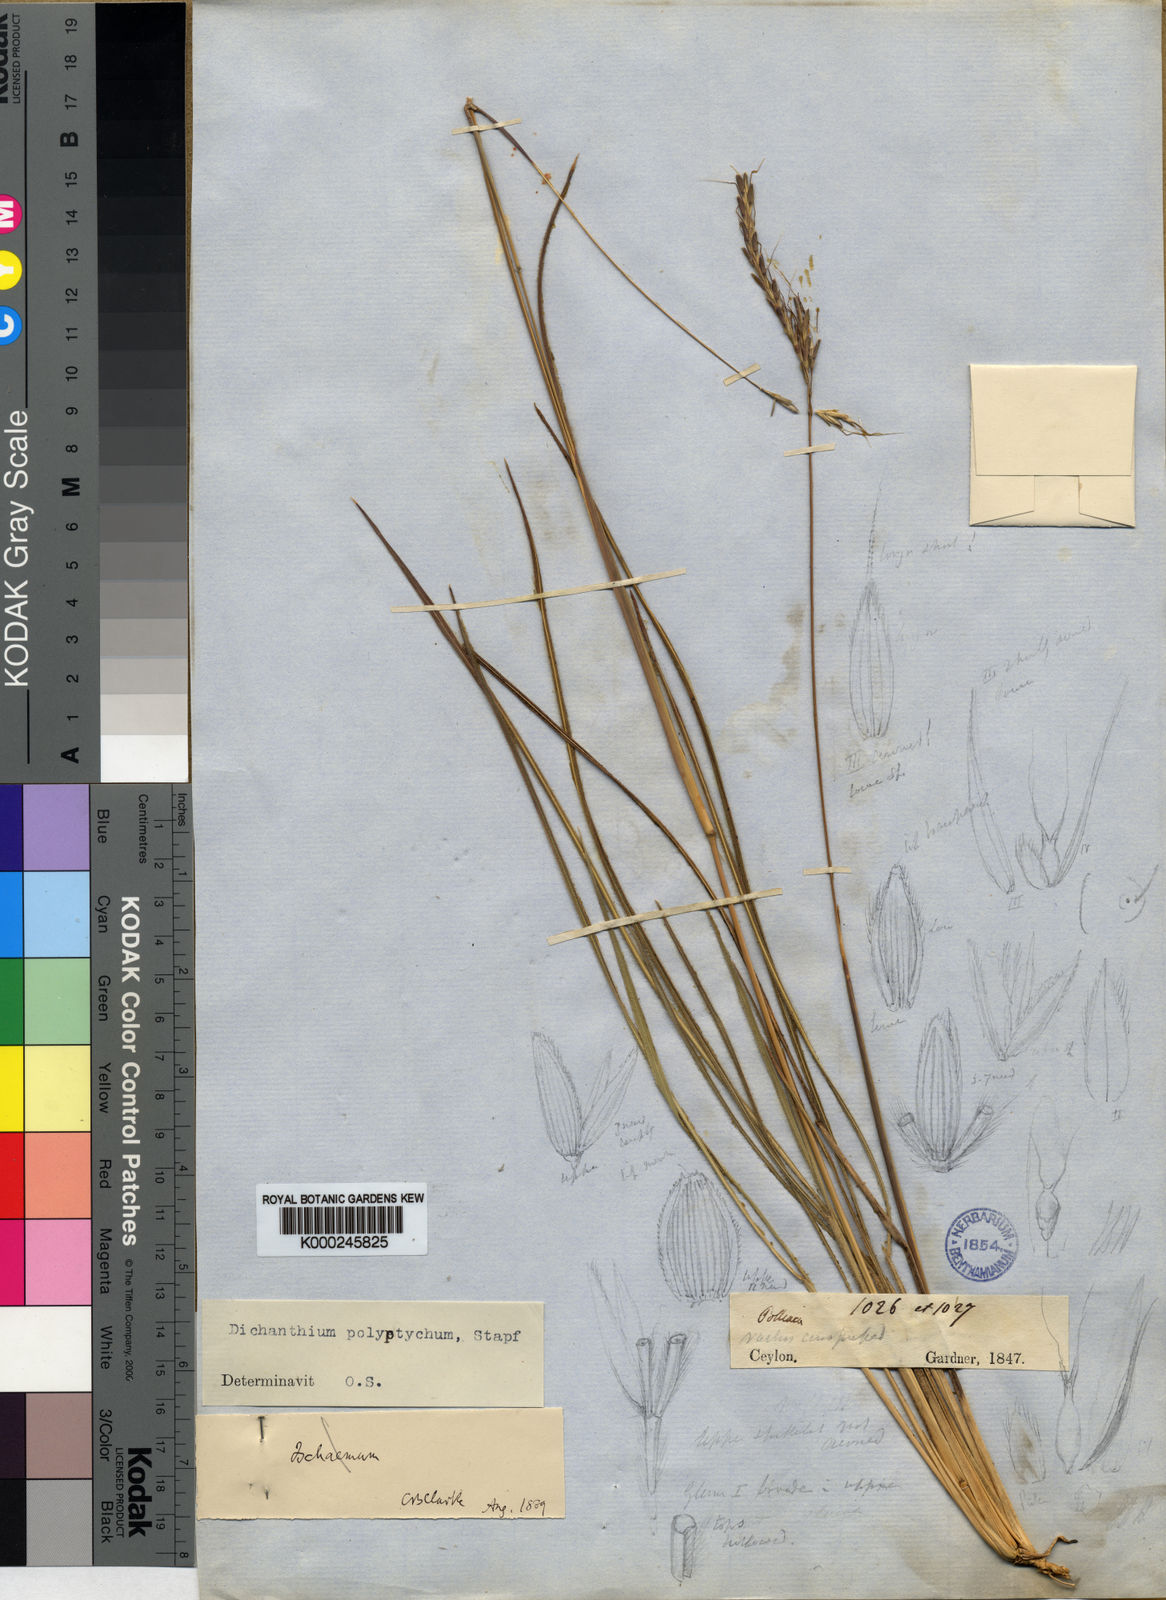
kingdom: Plantae
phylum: Tracheophyta
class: Liliopsida
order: Poales
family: Poaceae
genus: Andropogon
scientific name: Andropogon polyptychos
